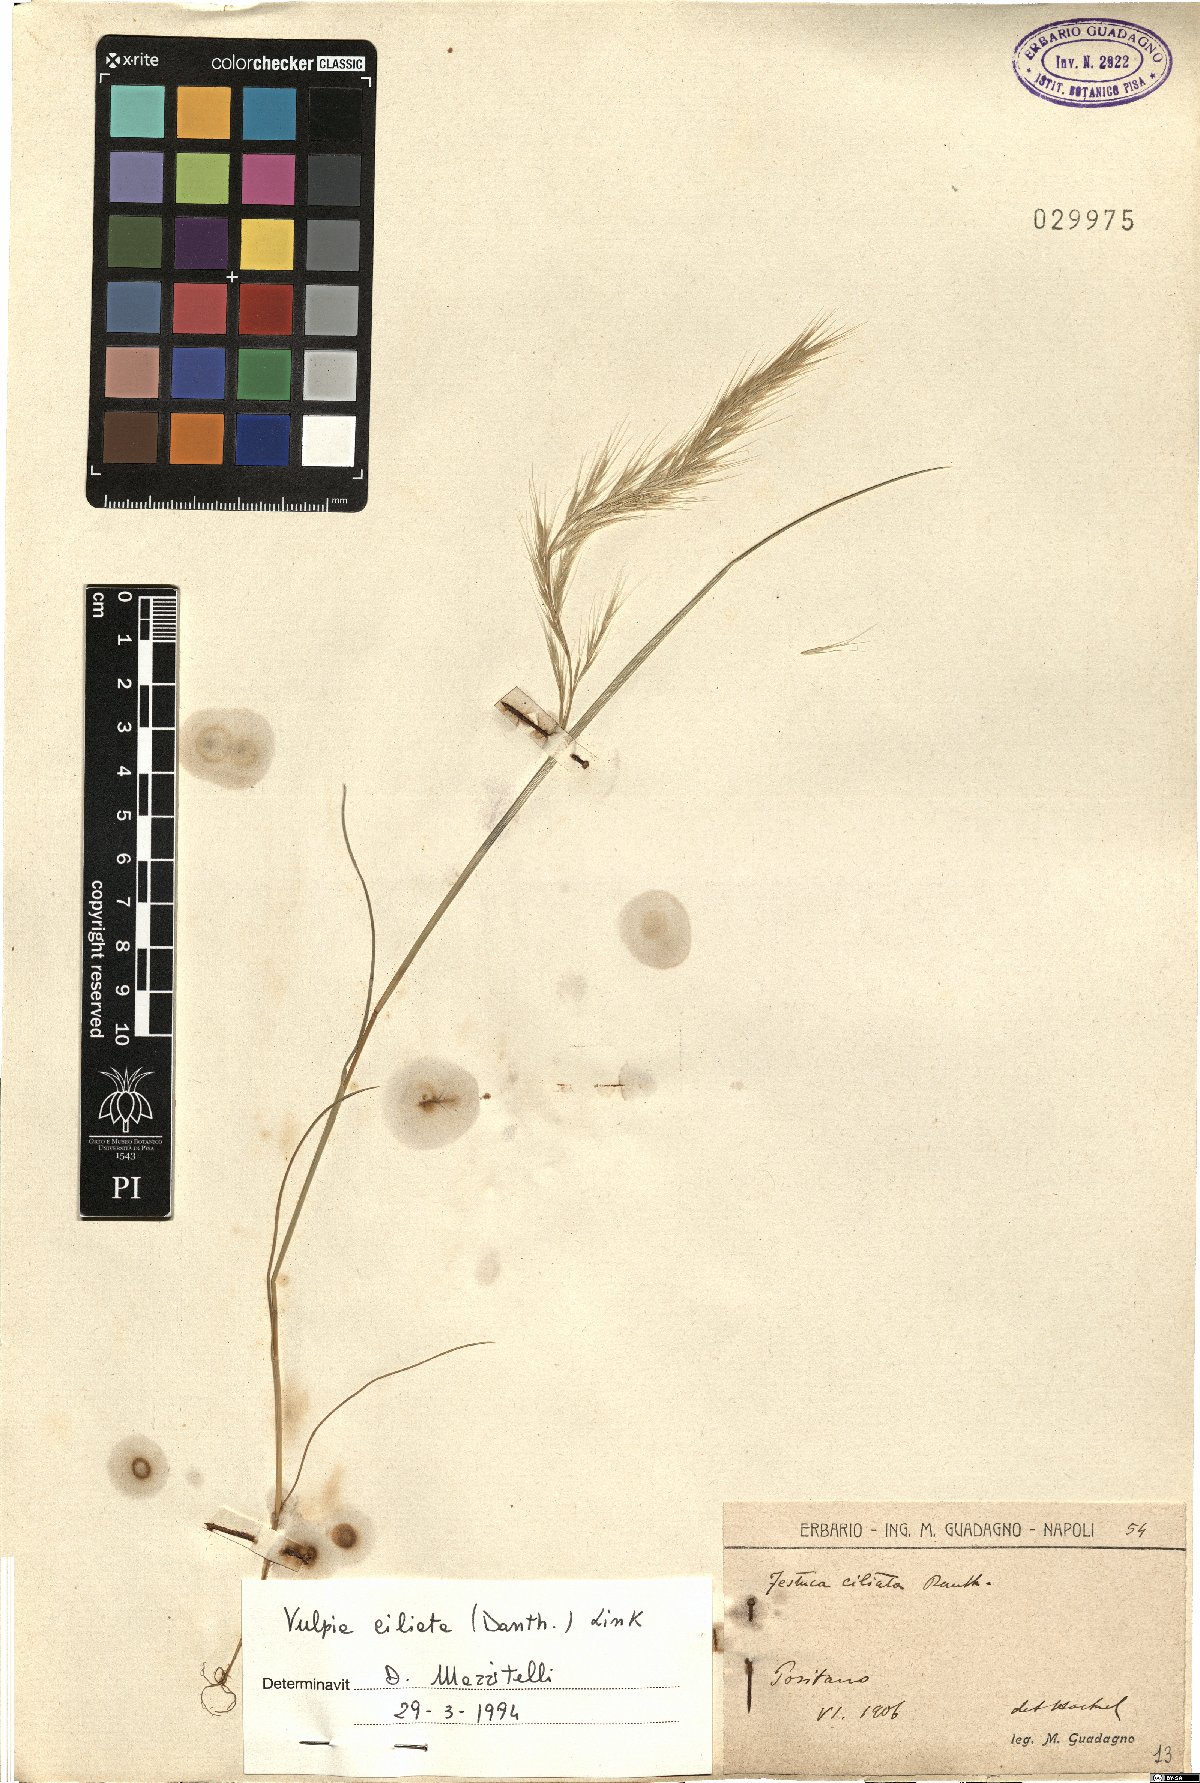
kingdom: Plantae
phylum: Tracheophyta
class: Liliopsida
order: Poales
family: Poaceae
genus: Festuca
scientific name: Festuca ambigua
